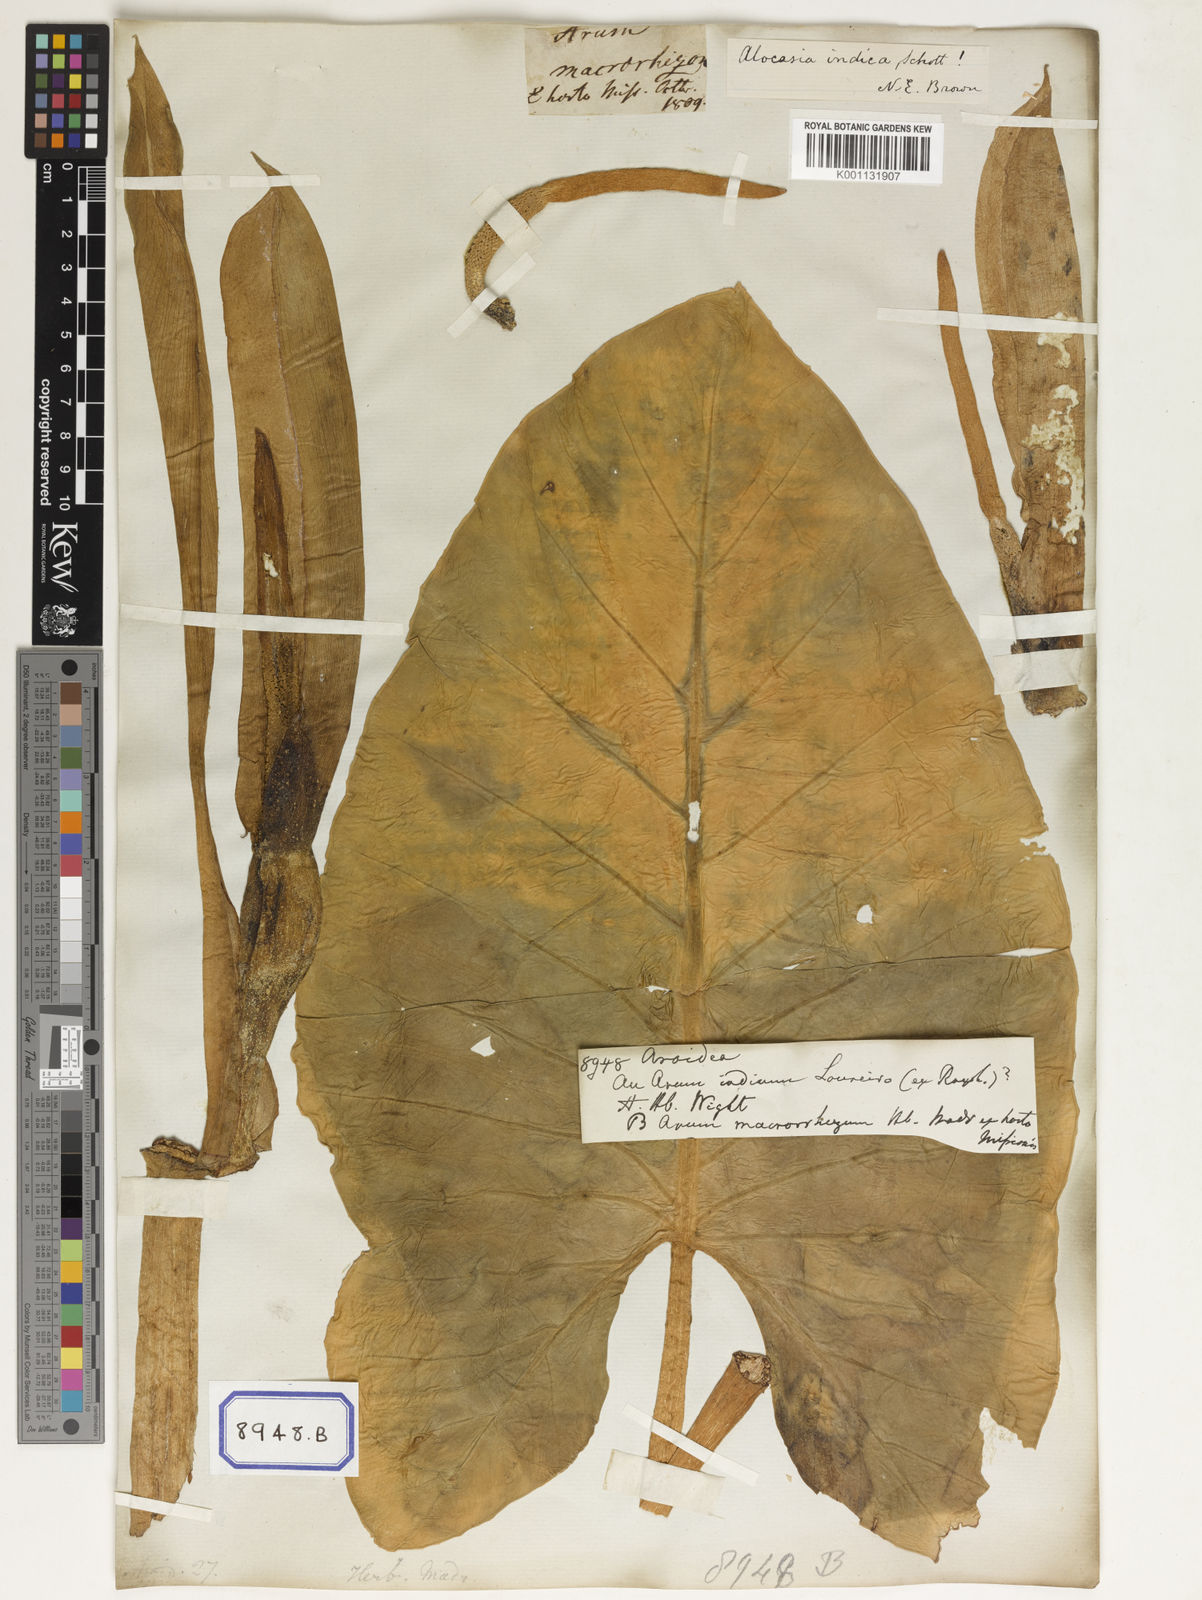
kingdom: Plantae
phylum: Tracheophyta
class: Liliopsida
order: Alismatales
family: Araceae
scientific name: Araceae
